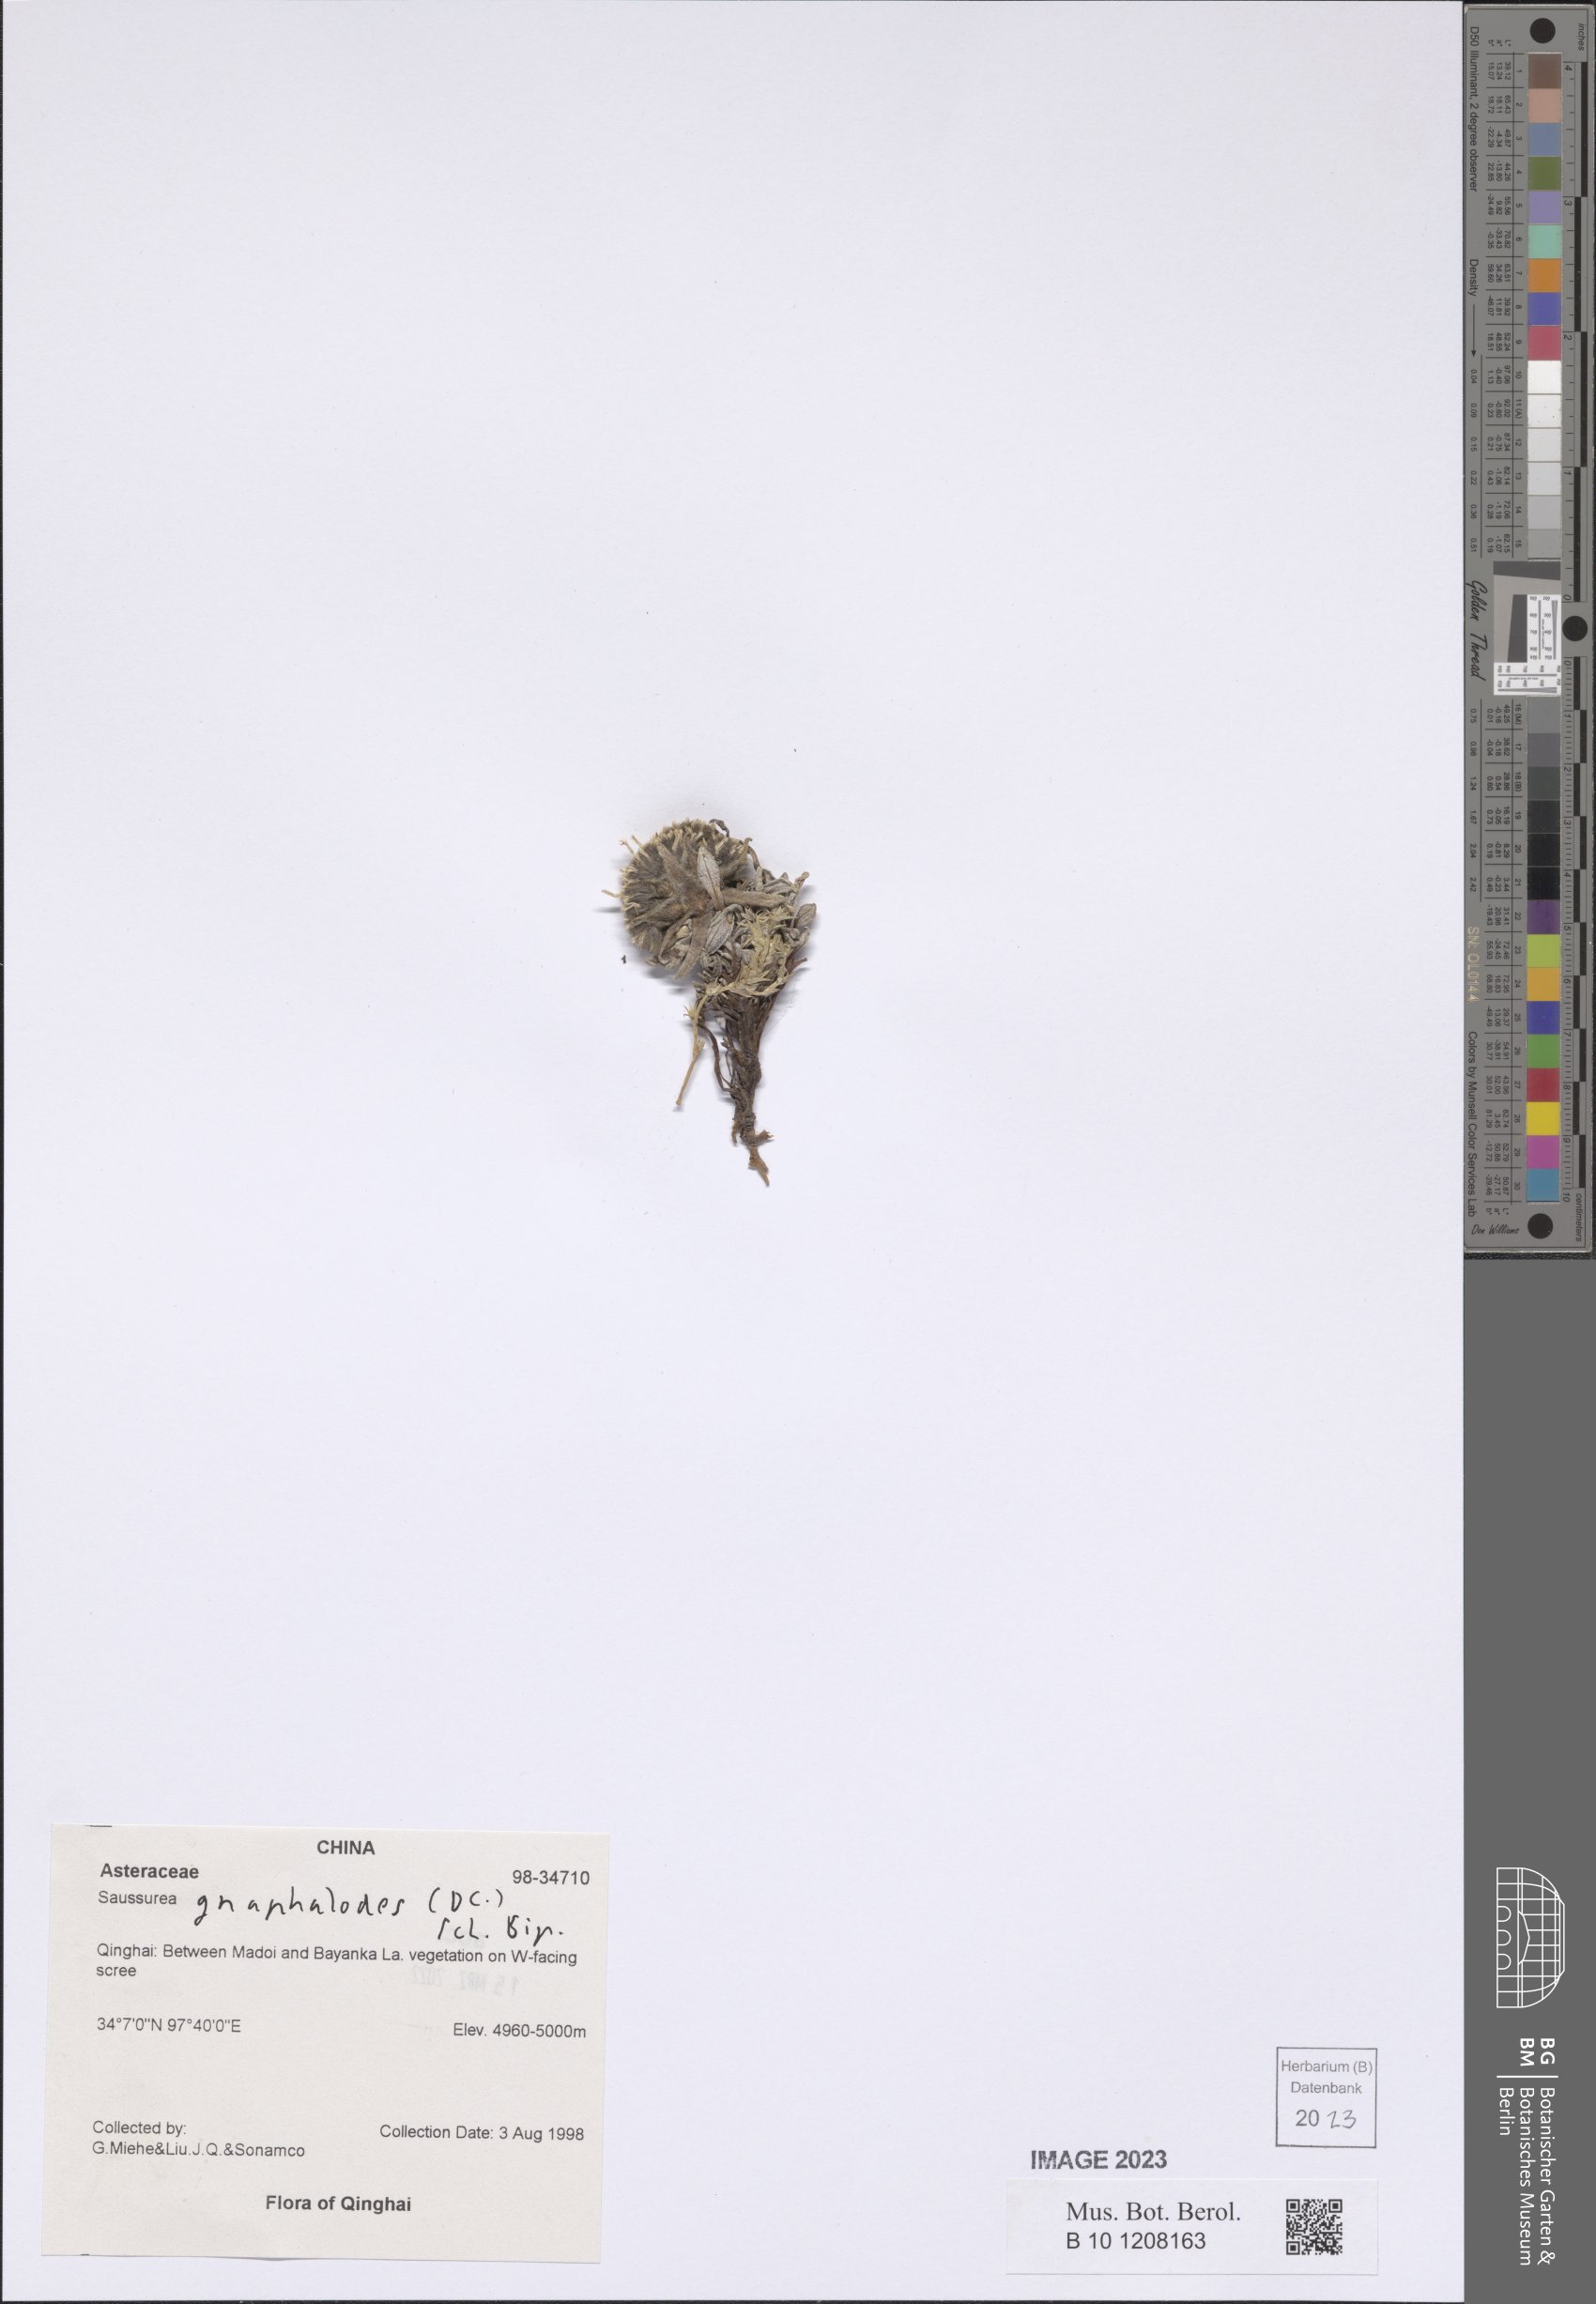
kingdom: Plantae
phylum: Tracheophyta
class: Magnoliopsida
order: Asterales
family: Asteraceae
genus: Saussurea
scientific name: Saussurea gnaphalodes
